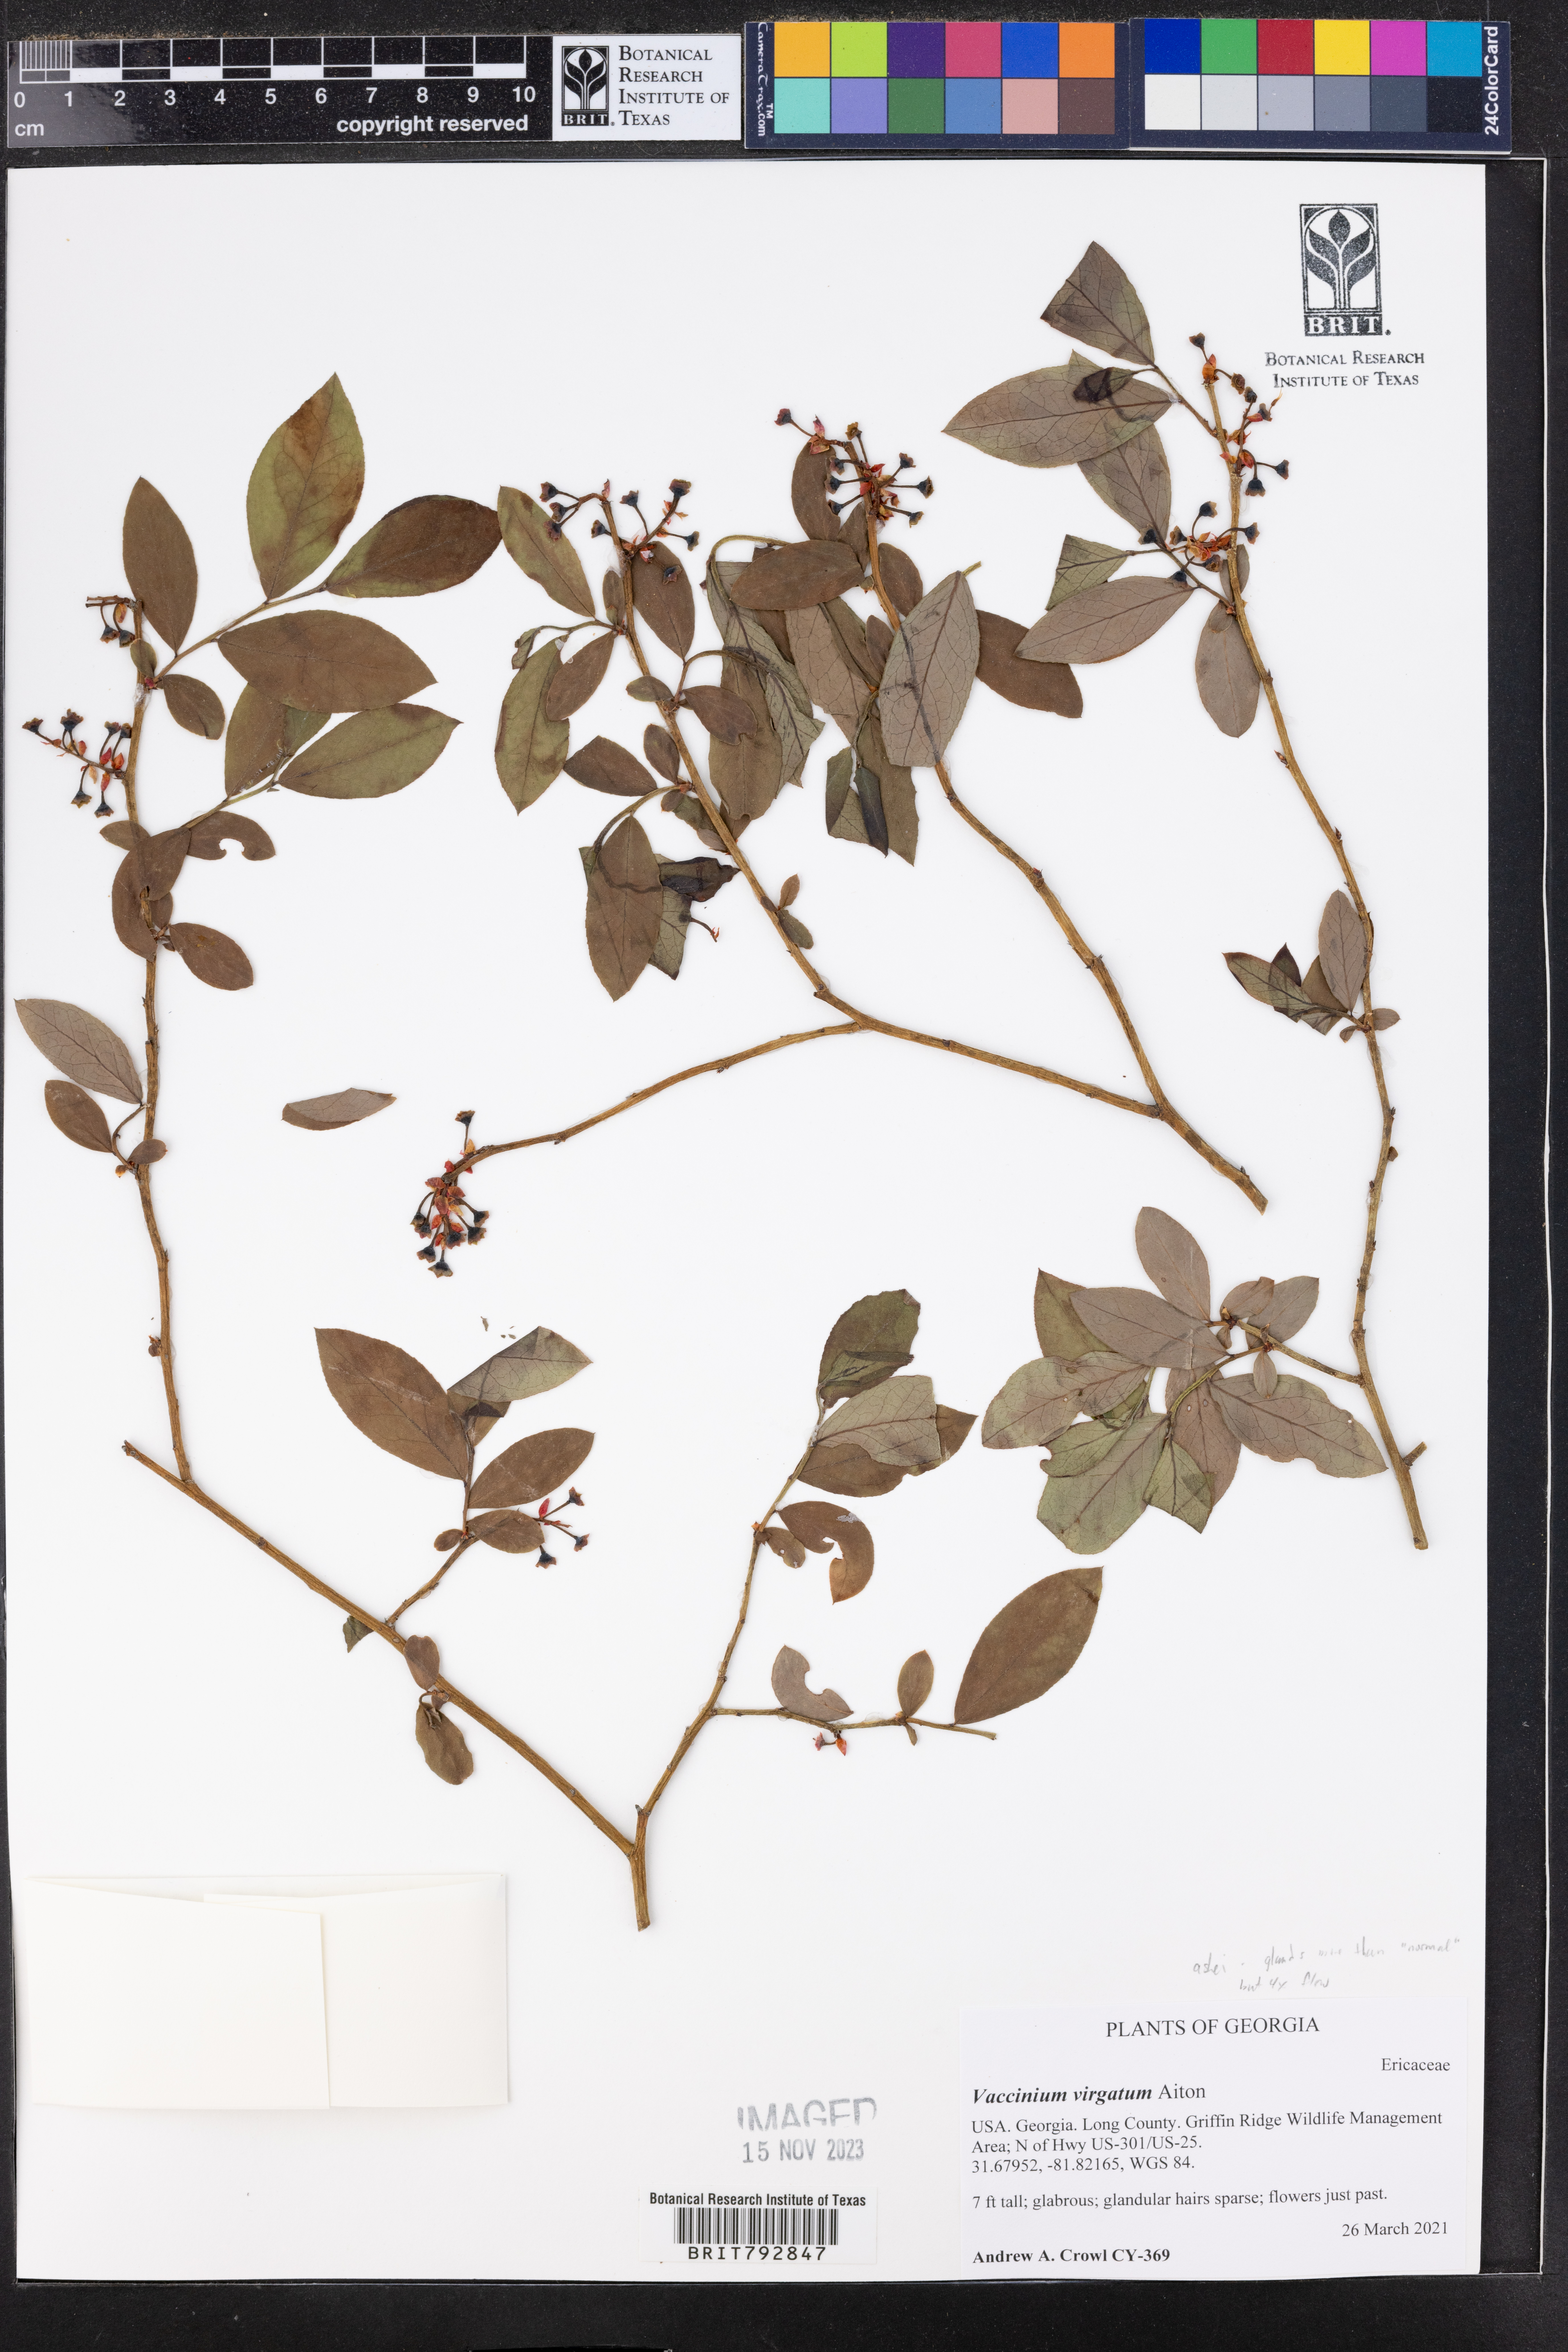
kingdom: Plantae
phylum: Tracheophyta
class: Magnoliopsida
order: Ericales
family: Ericaceae
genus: Vaccinium
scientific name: Vaccinium corymbosum
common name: Blueberry
